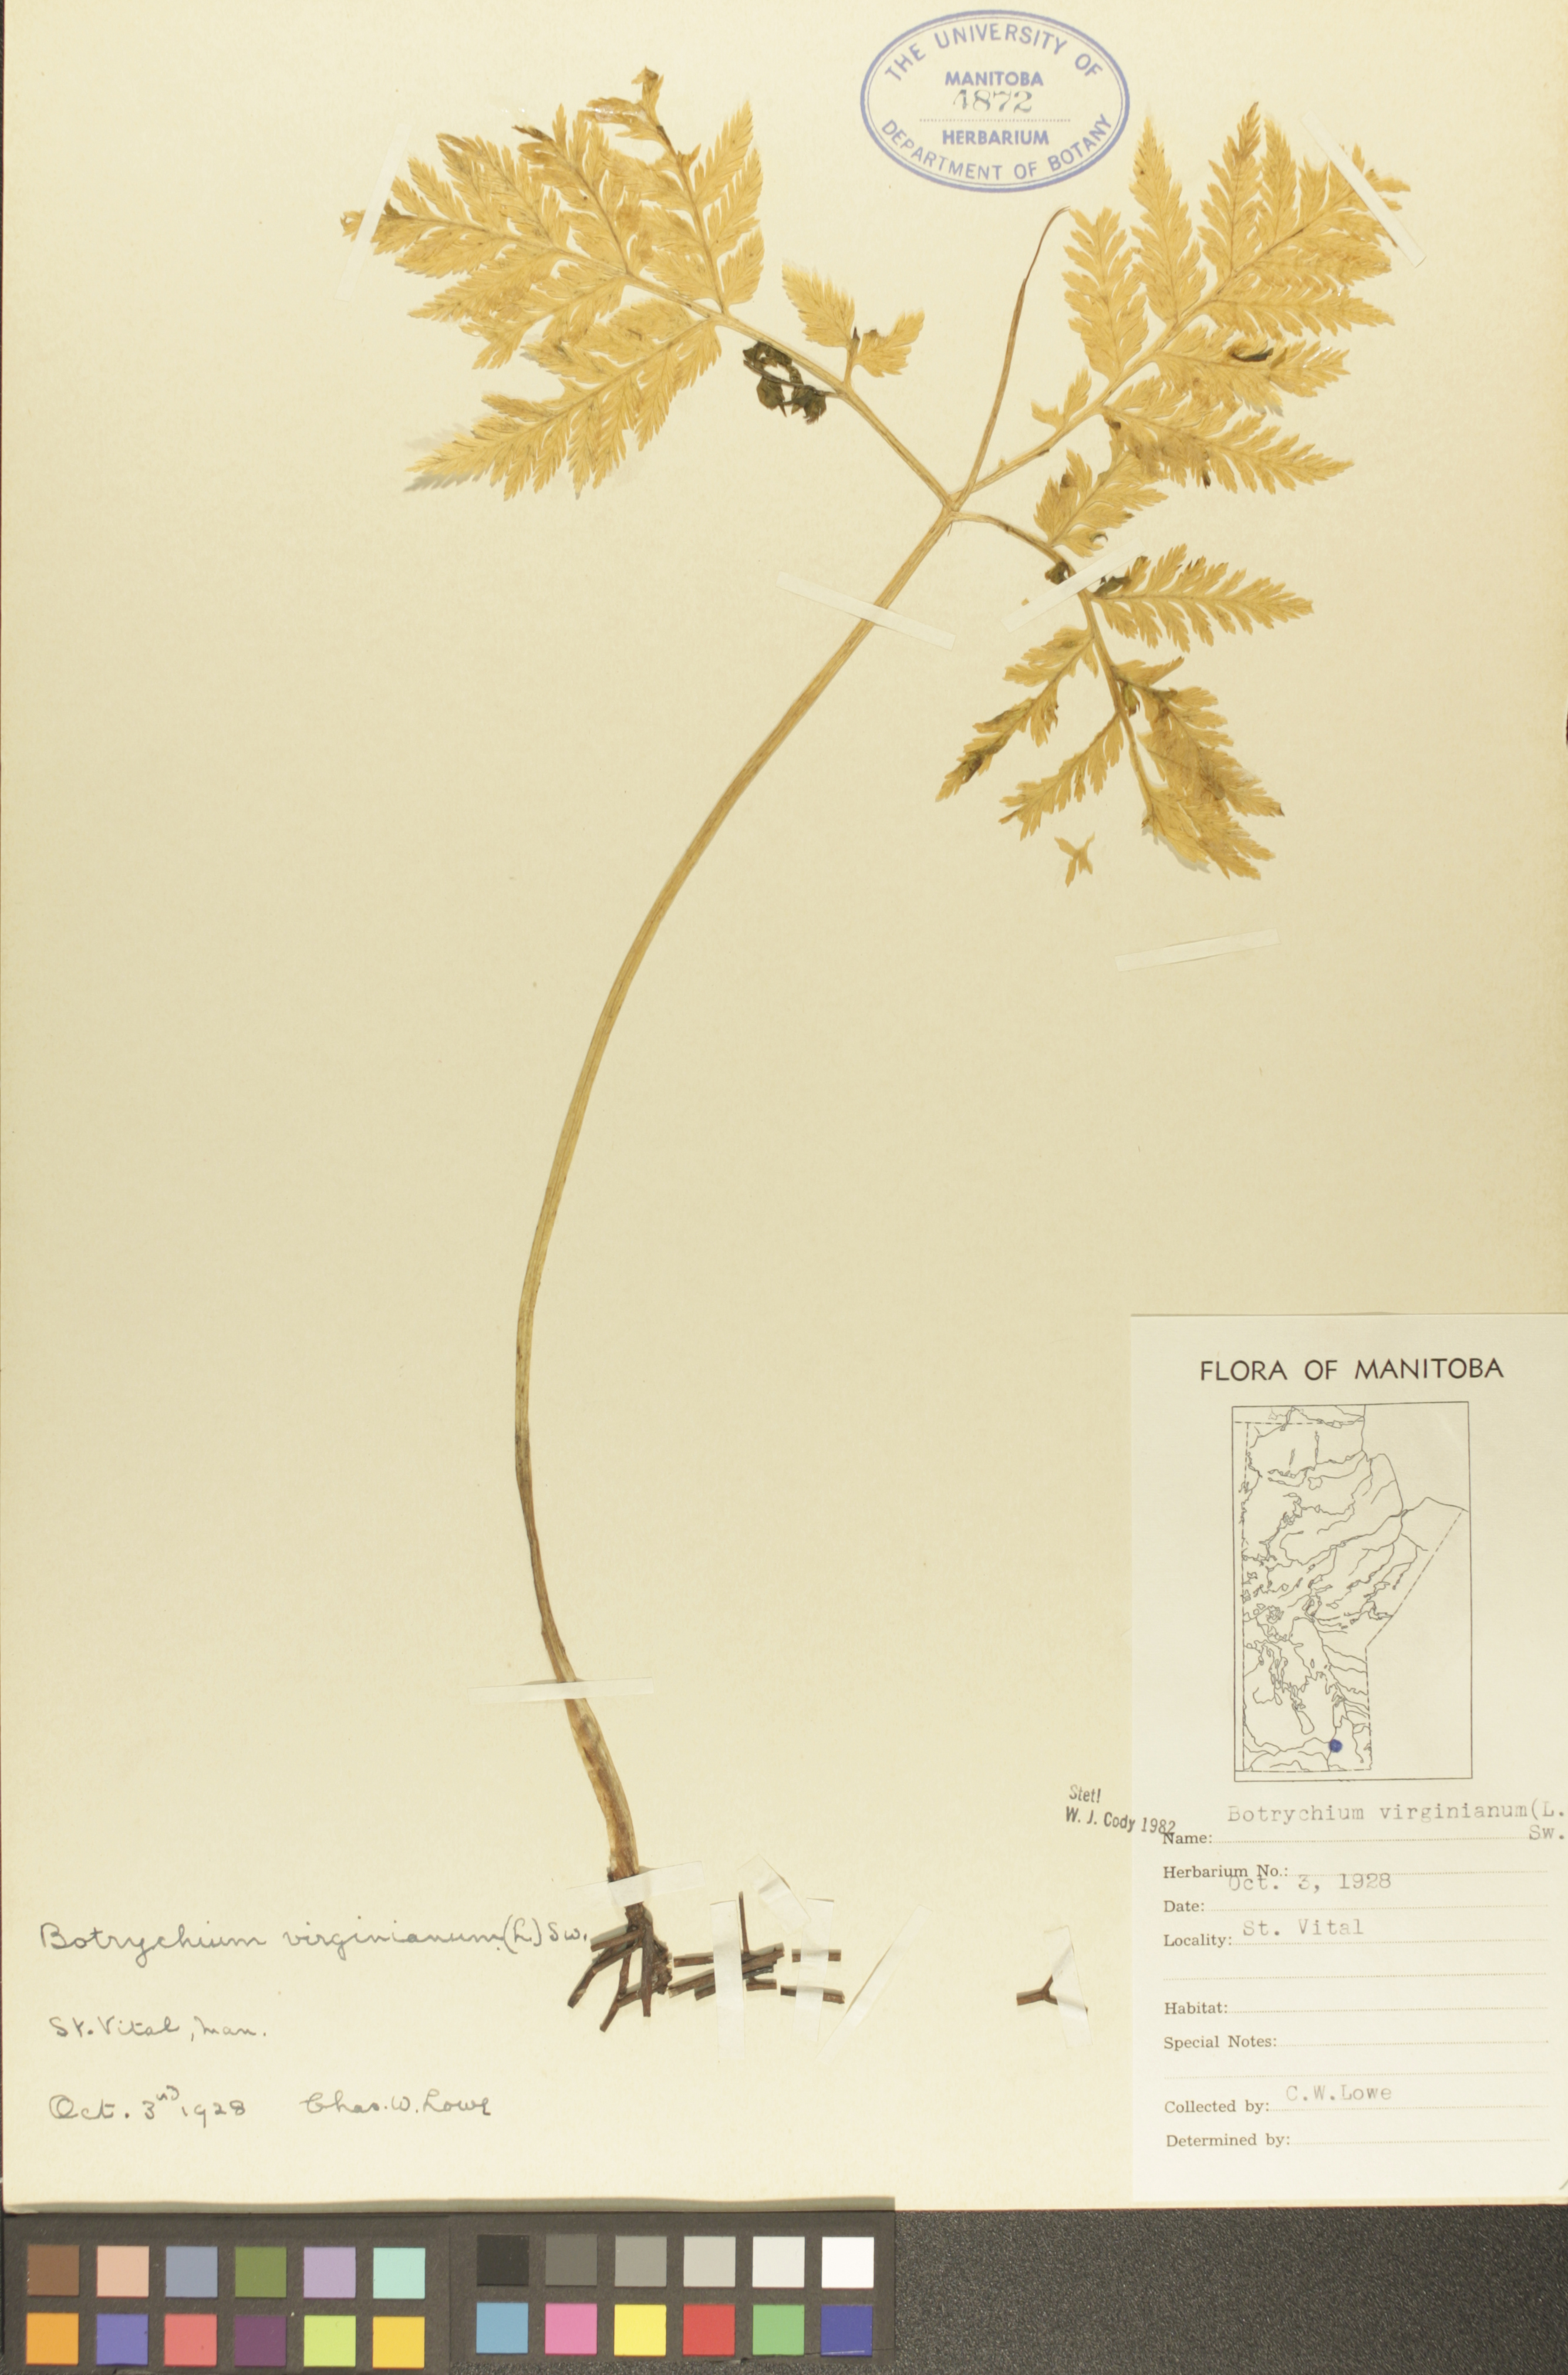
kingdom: Plantae
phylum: Tracheophyta
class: Polypodiopsida
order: Ophioglossales
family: Ophioglossaceae
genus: Botrypus
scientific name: Botrypus virginianus
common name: Common grapefern
